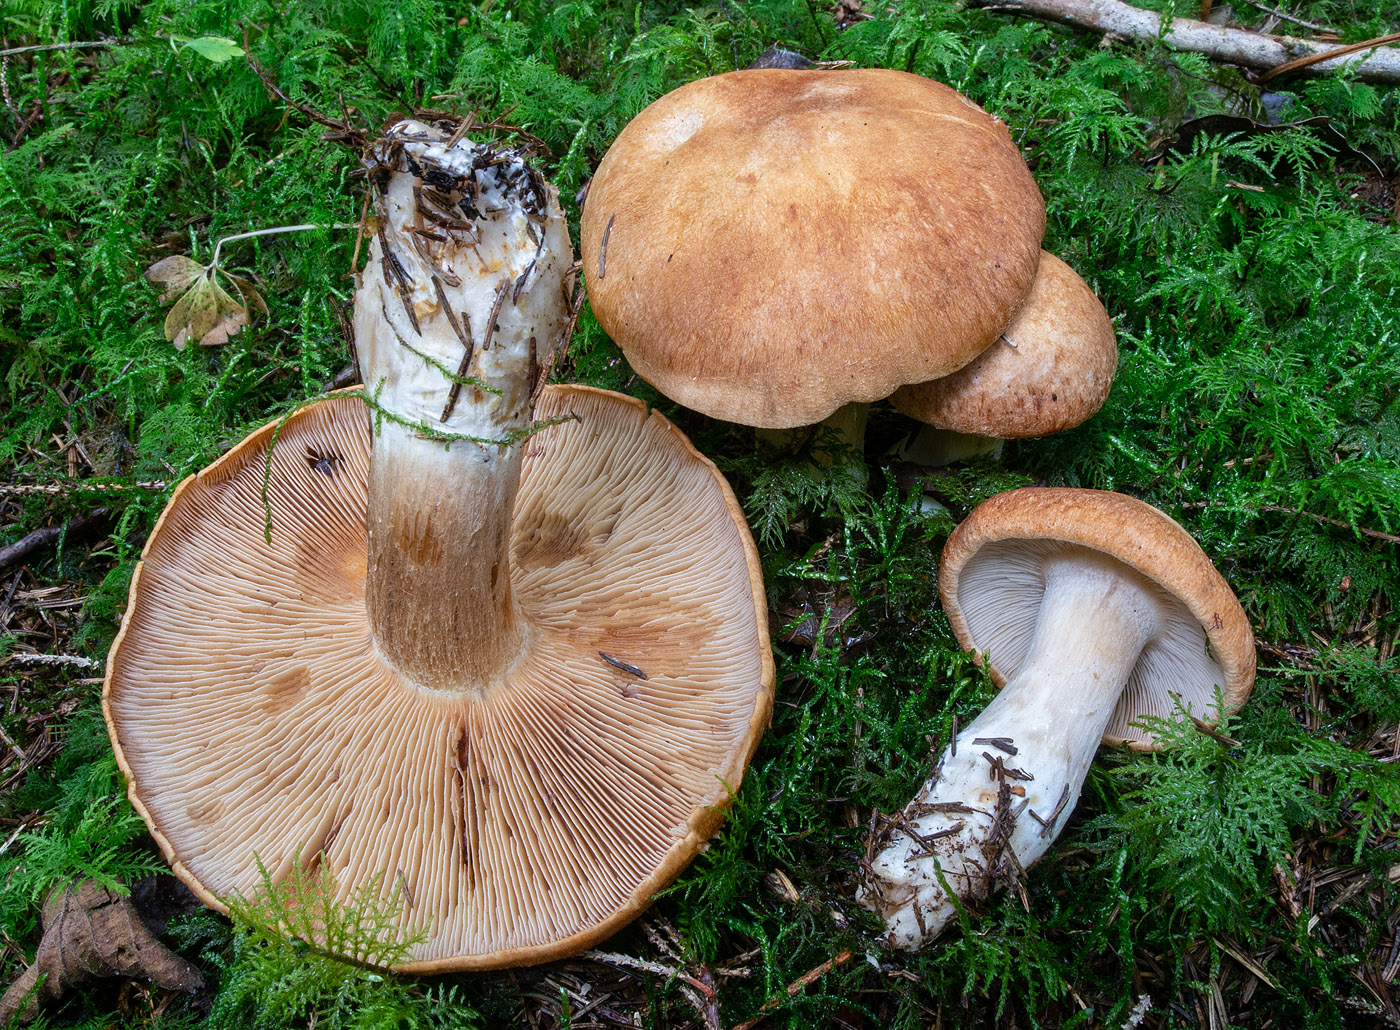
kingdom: Fungi
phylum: Basidiomycota
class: Agaricomycetes
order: Agaricales
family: Cortinariaceae
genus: Cystinarius
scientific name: Cystinarius crassus
